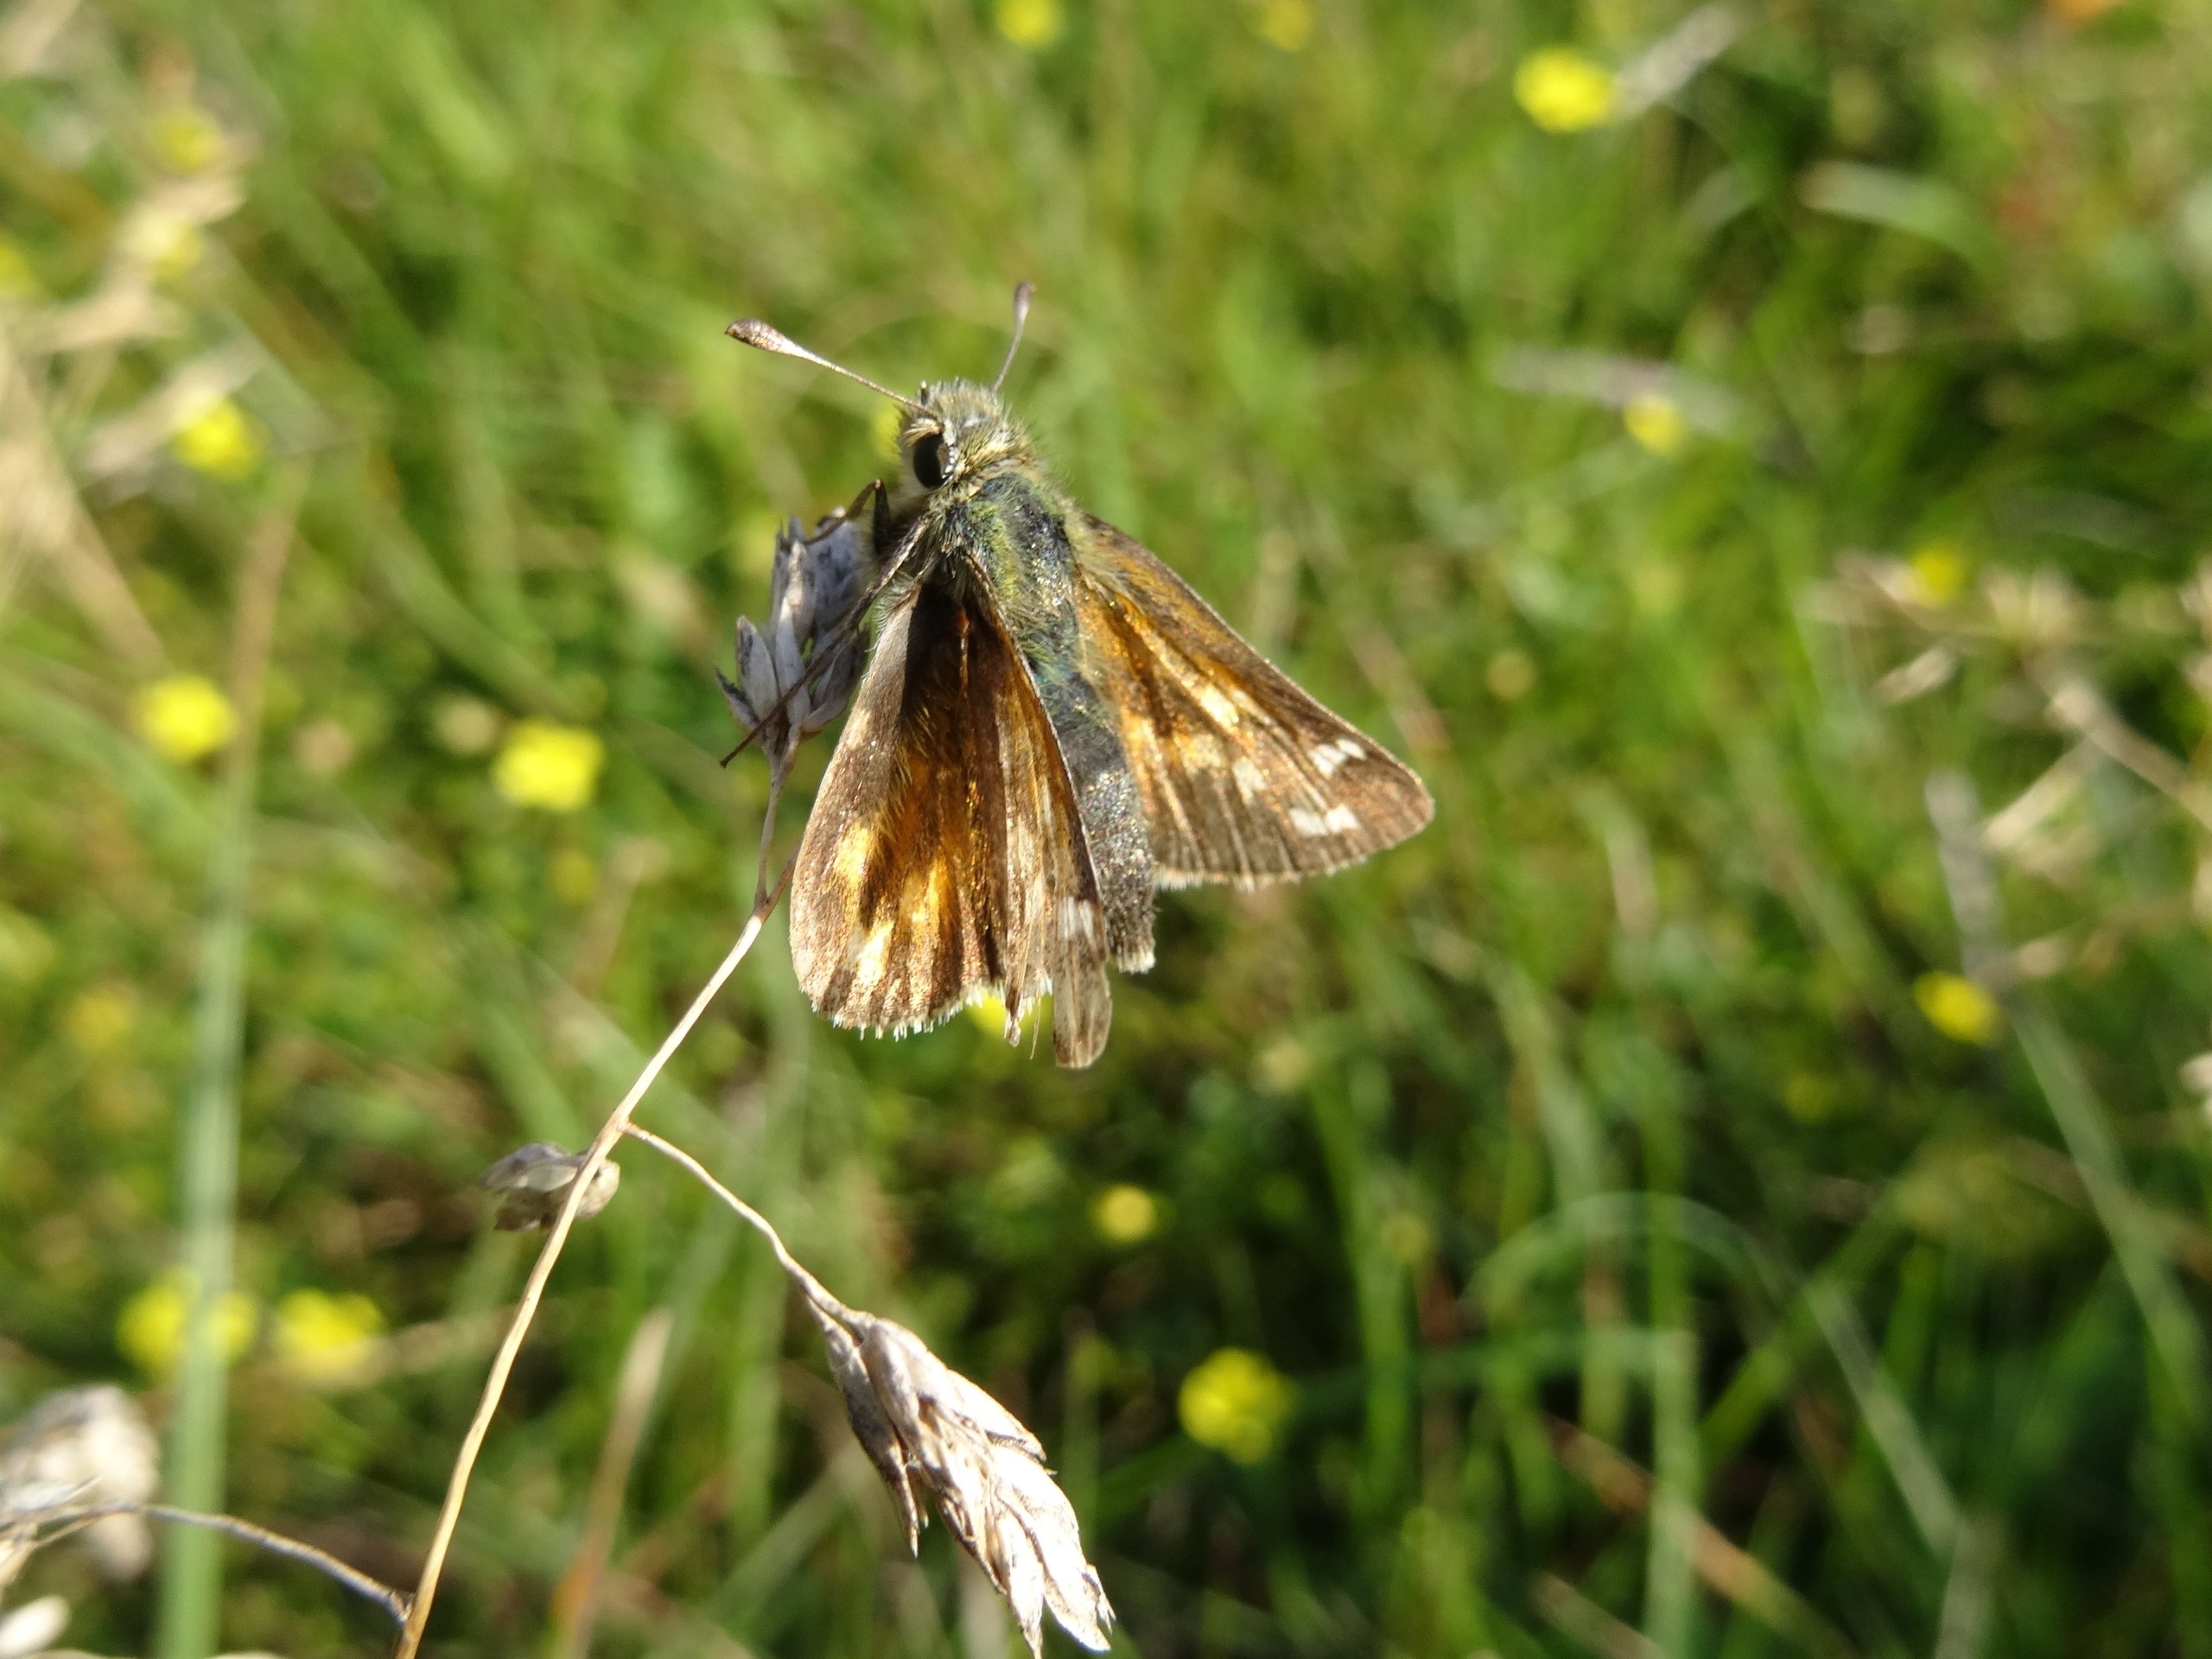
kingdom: Animalia
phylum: Arthropoda
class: Insecta
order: Lepidoptera
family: Hesperiidae
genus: Hesperia
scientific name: Hesperia comma
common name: Kommabredpande
